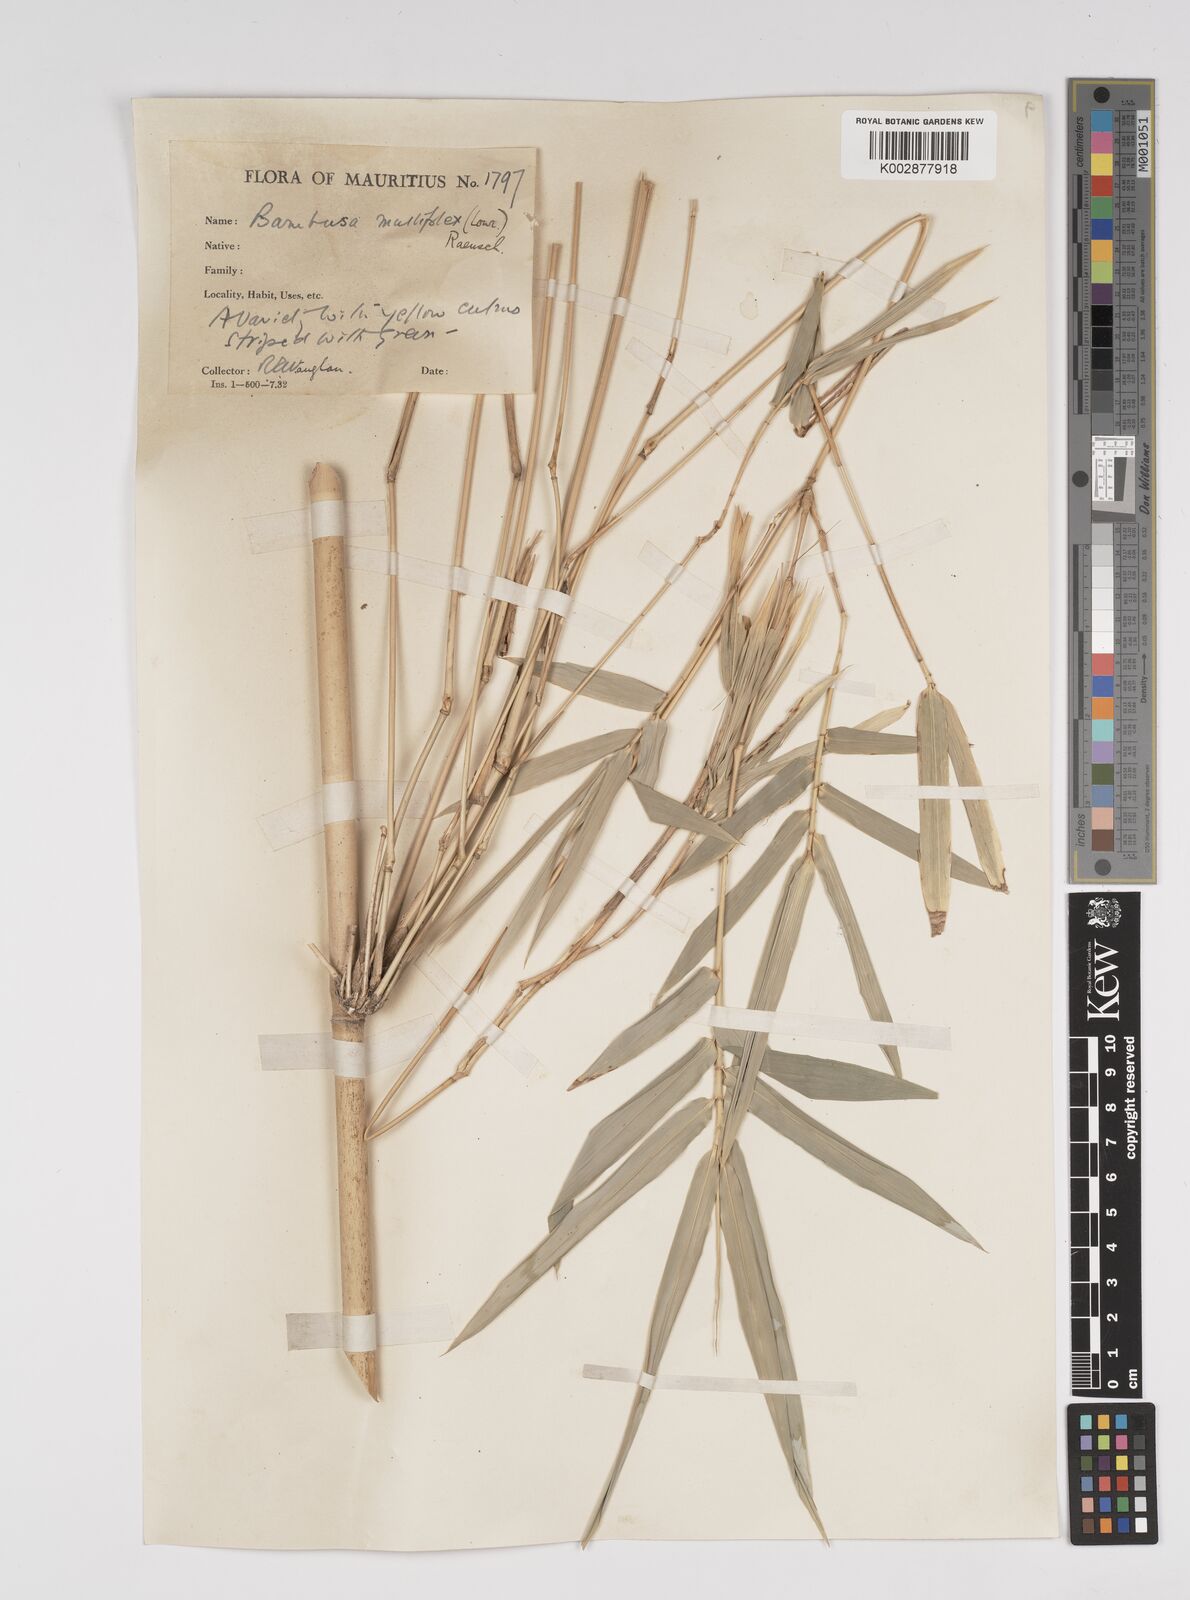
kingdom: Plantae
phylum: Tracheophyta
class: Liliopsida
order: Poales
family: Poaceae
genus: Bambusa
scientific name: Bambusa multiplex
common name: Hedge bamboo
